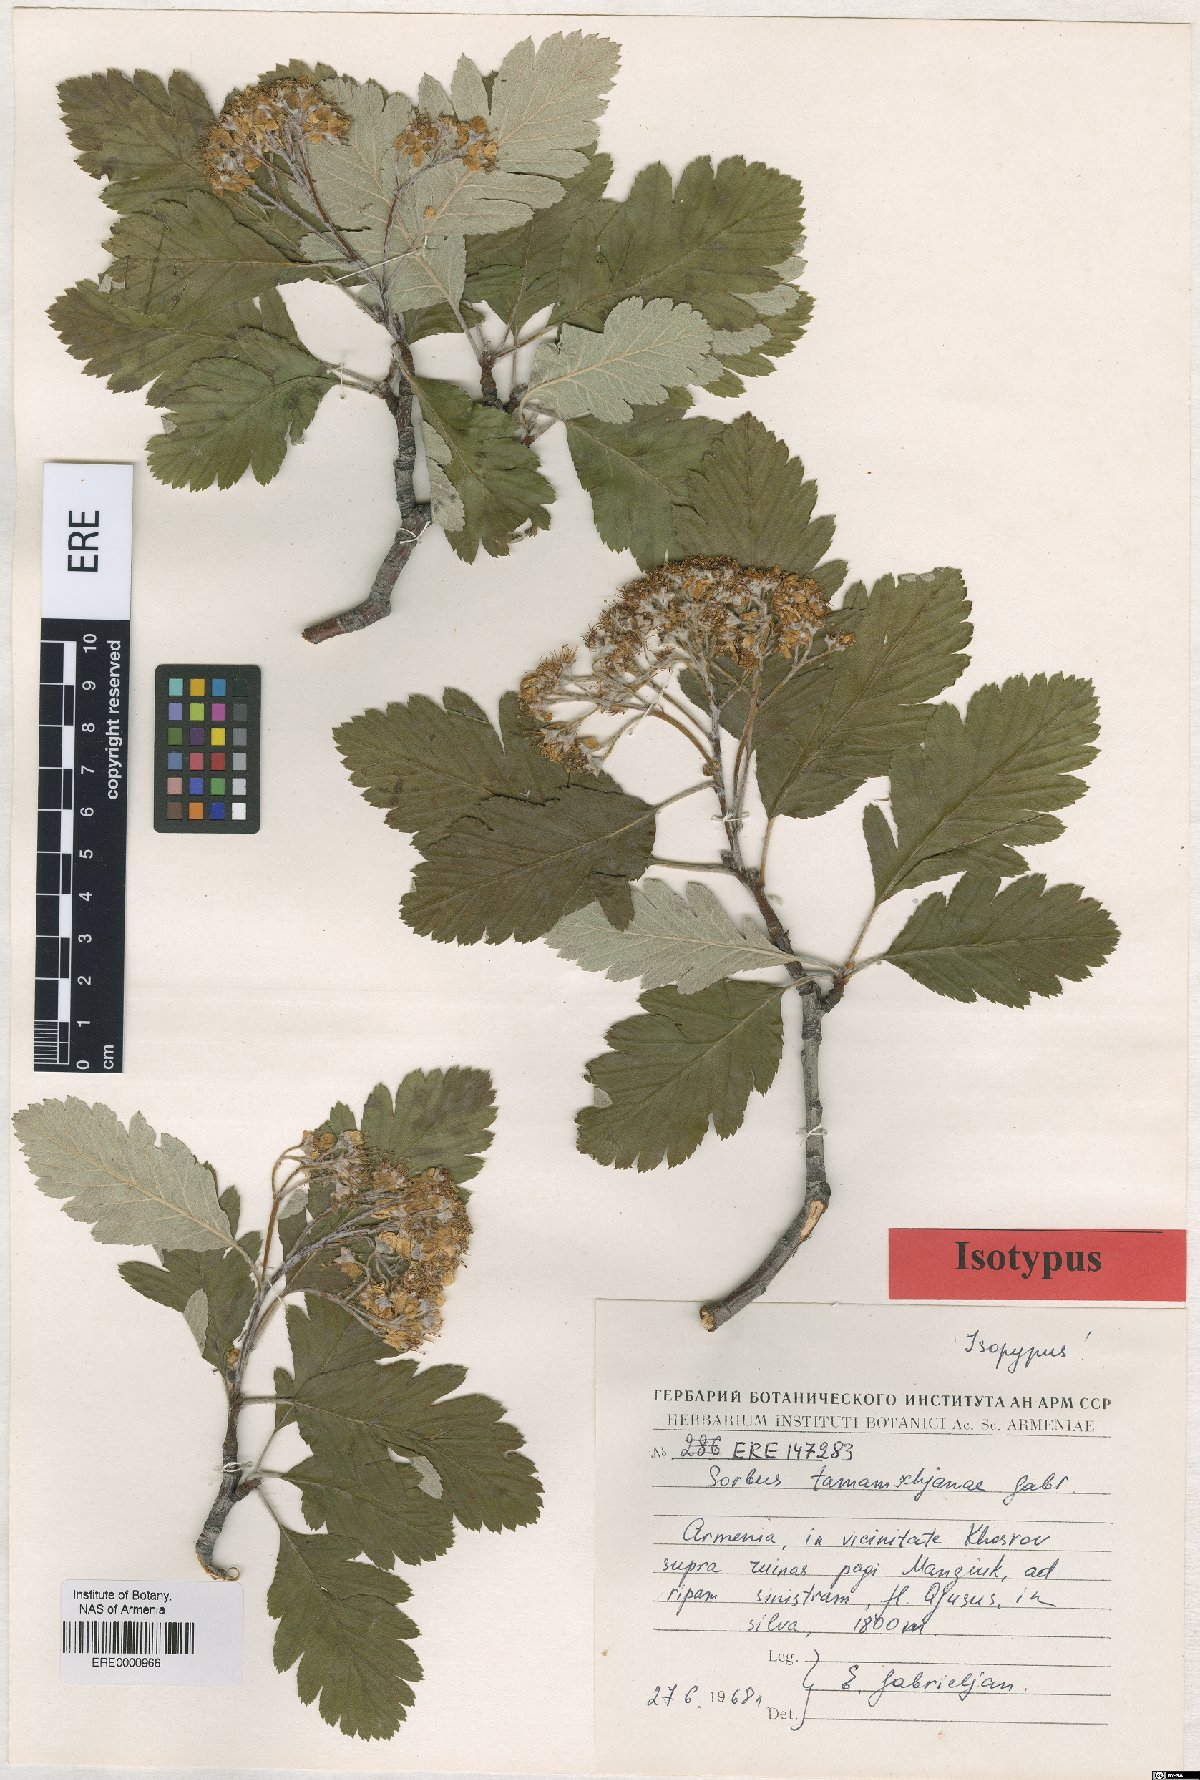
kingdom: Plantae
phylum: Tracheophyta
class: Magnoliopsida
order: Rosales
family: Rosaceae
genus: Hedlundia
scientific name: Hedlundia tamamschjanae
